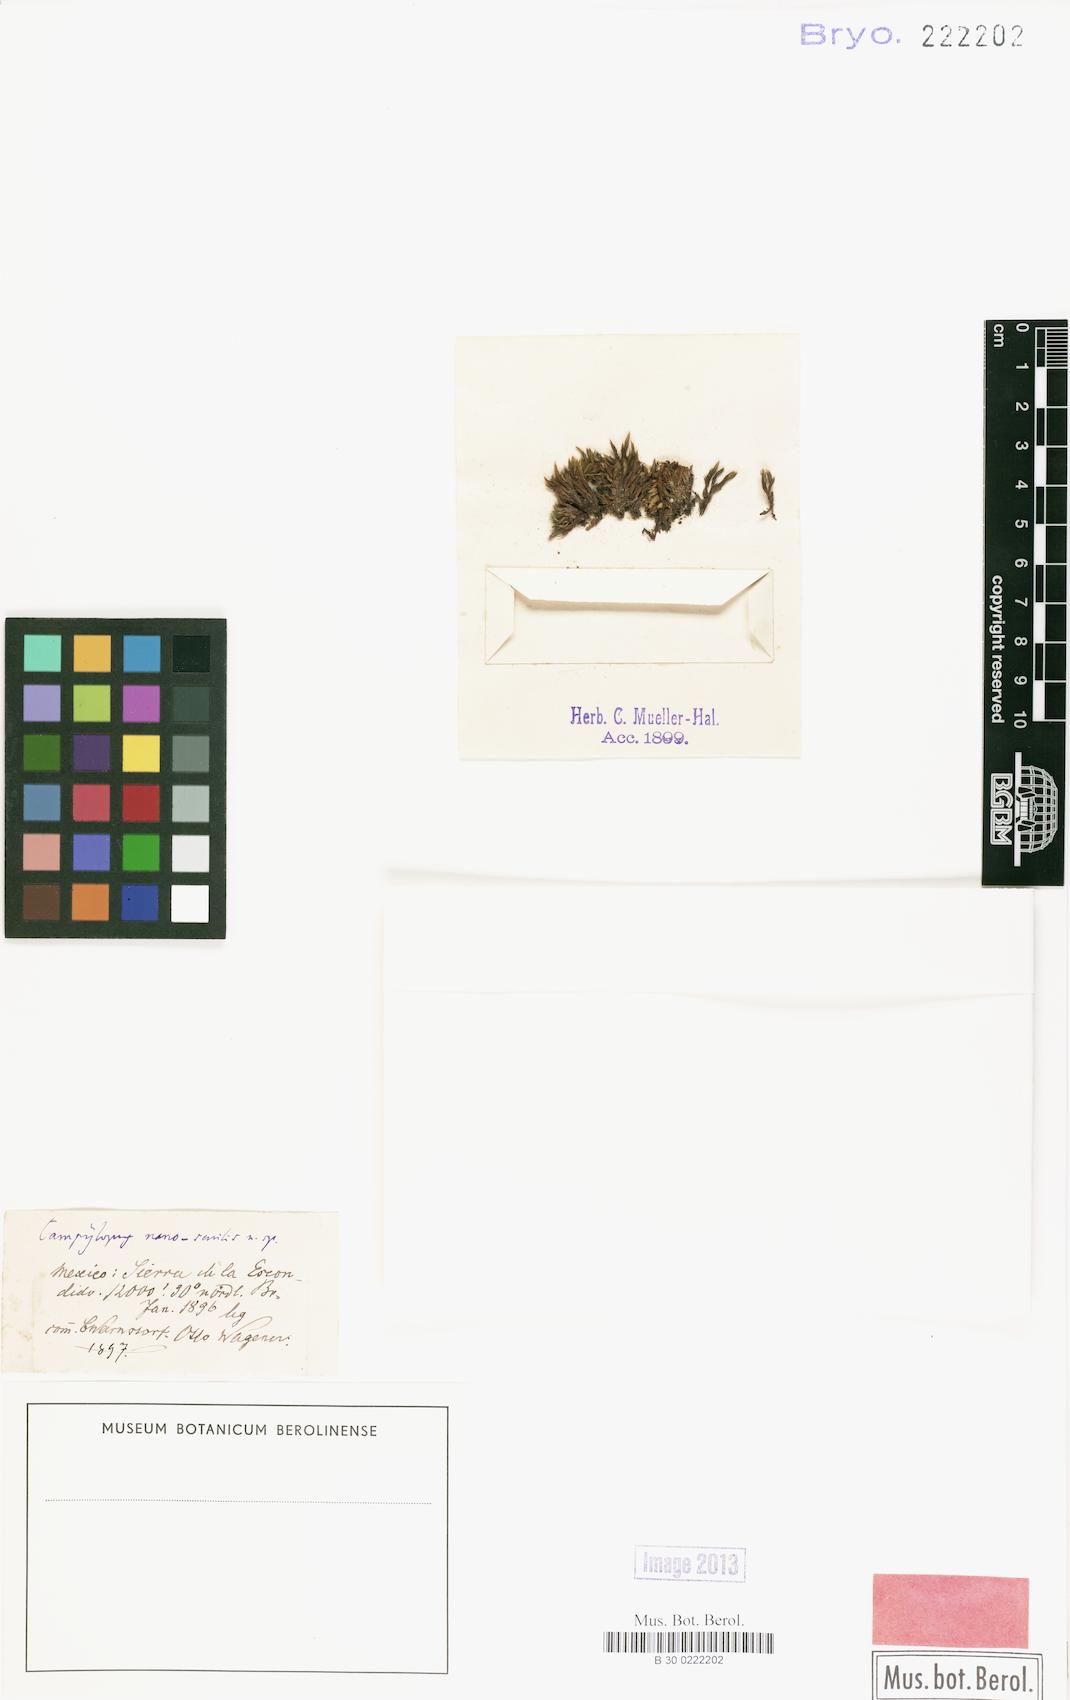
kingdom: Plantae
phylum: Bryophyta
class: Bryopsida
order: Dicranales
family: Dicranaceae
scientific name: Dicranaceae
